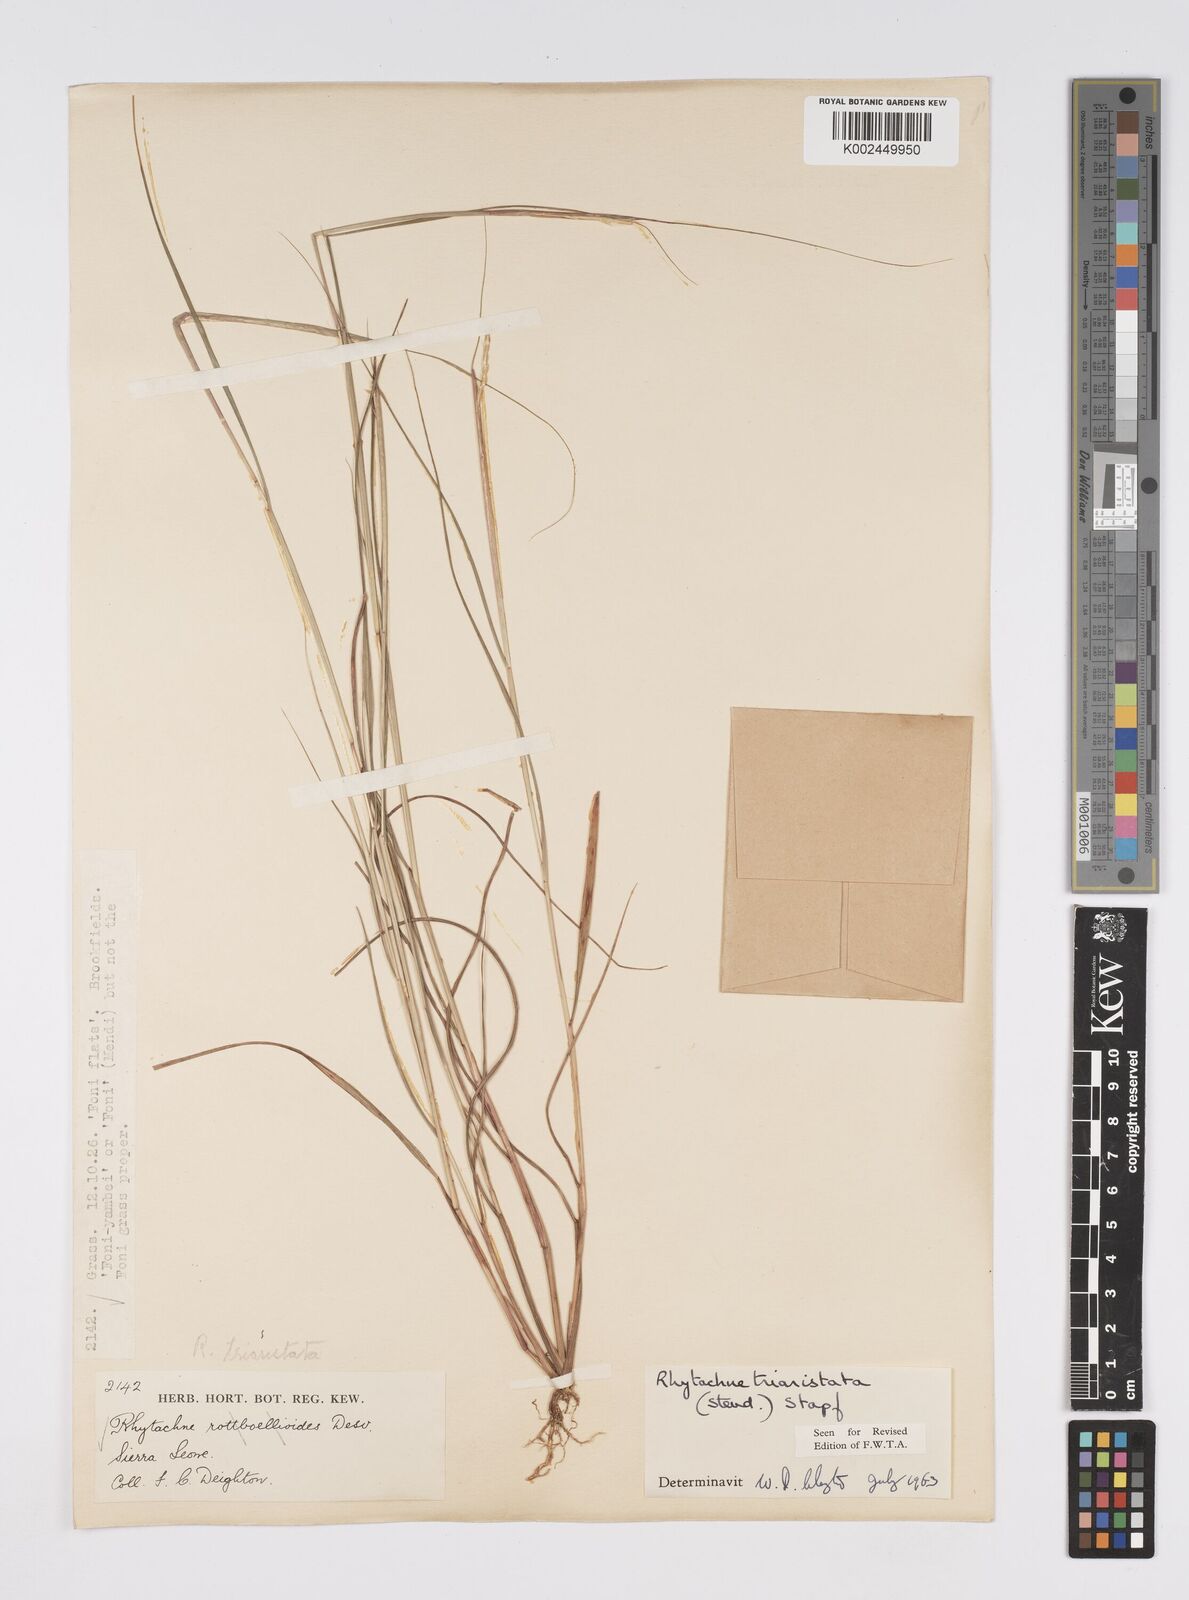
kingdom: Plantae
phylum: Tracheophyta
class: Liliopsida
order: Poales
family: Poaceae
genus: Rhytachne
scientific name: Rhytachne triaristata
